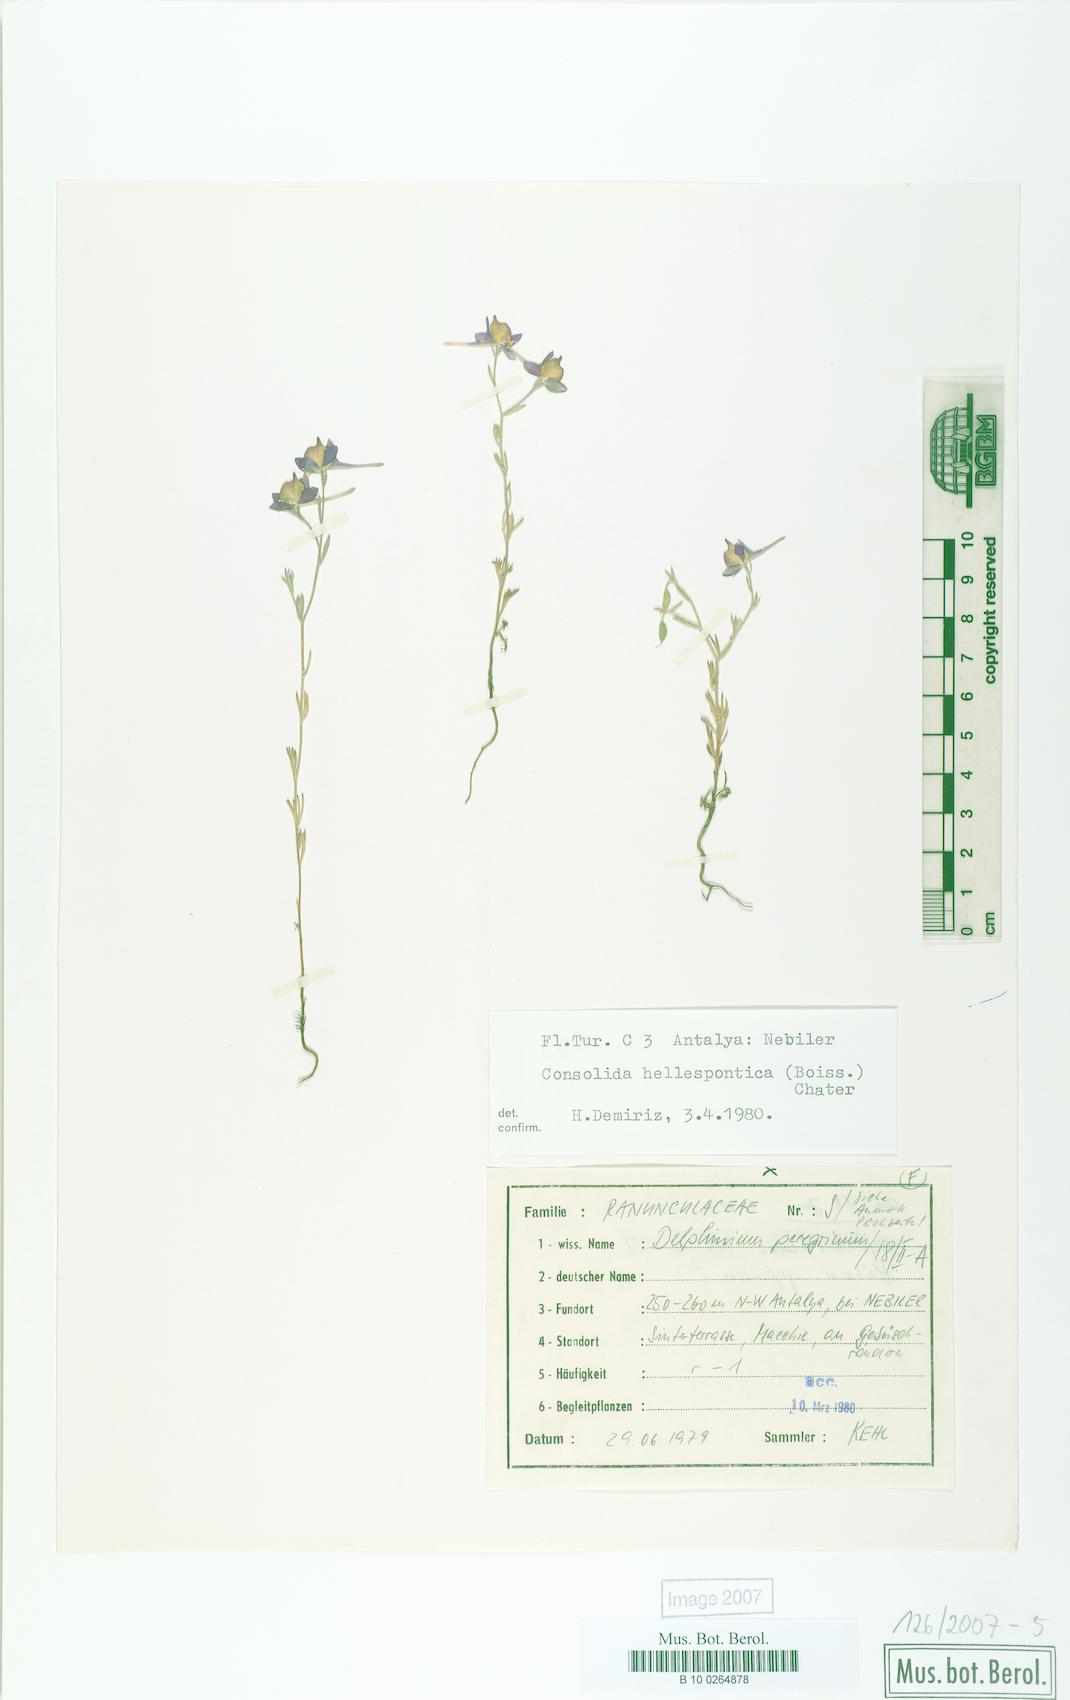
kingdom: Plantae
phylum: Tracheophyta
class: Magnoliopsida
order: Ranunculales
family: Ranunculaceae
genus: Delphinium
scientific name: Delphinium hellesponticum
